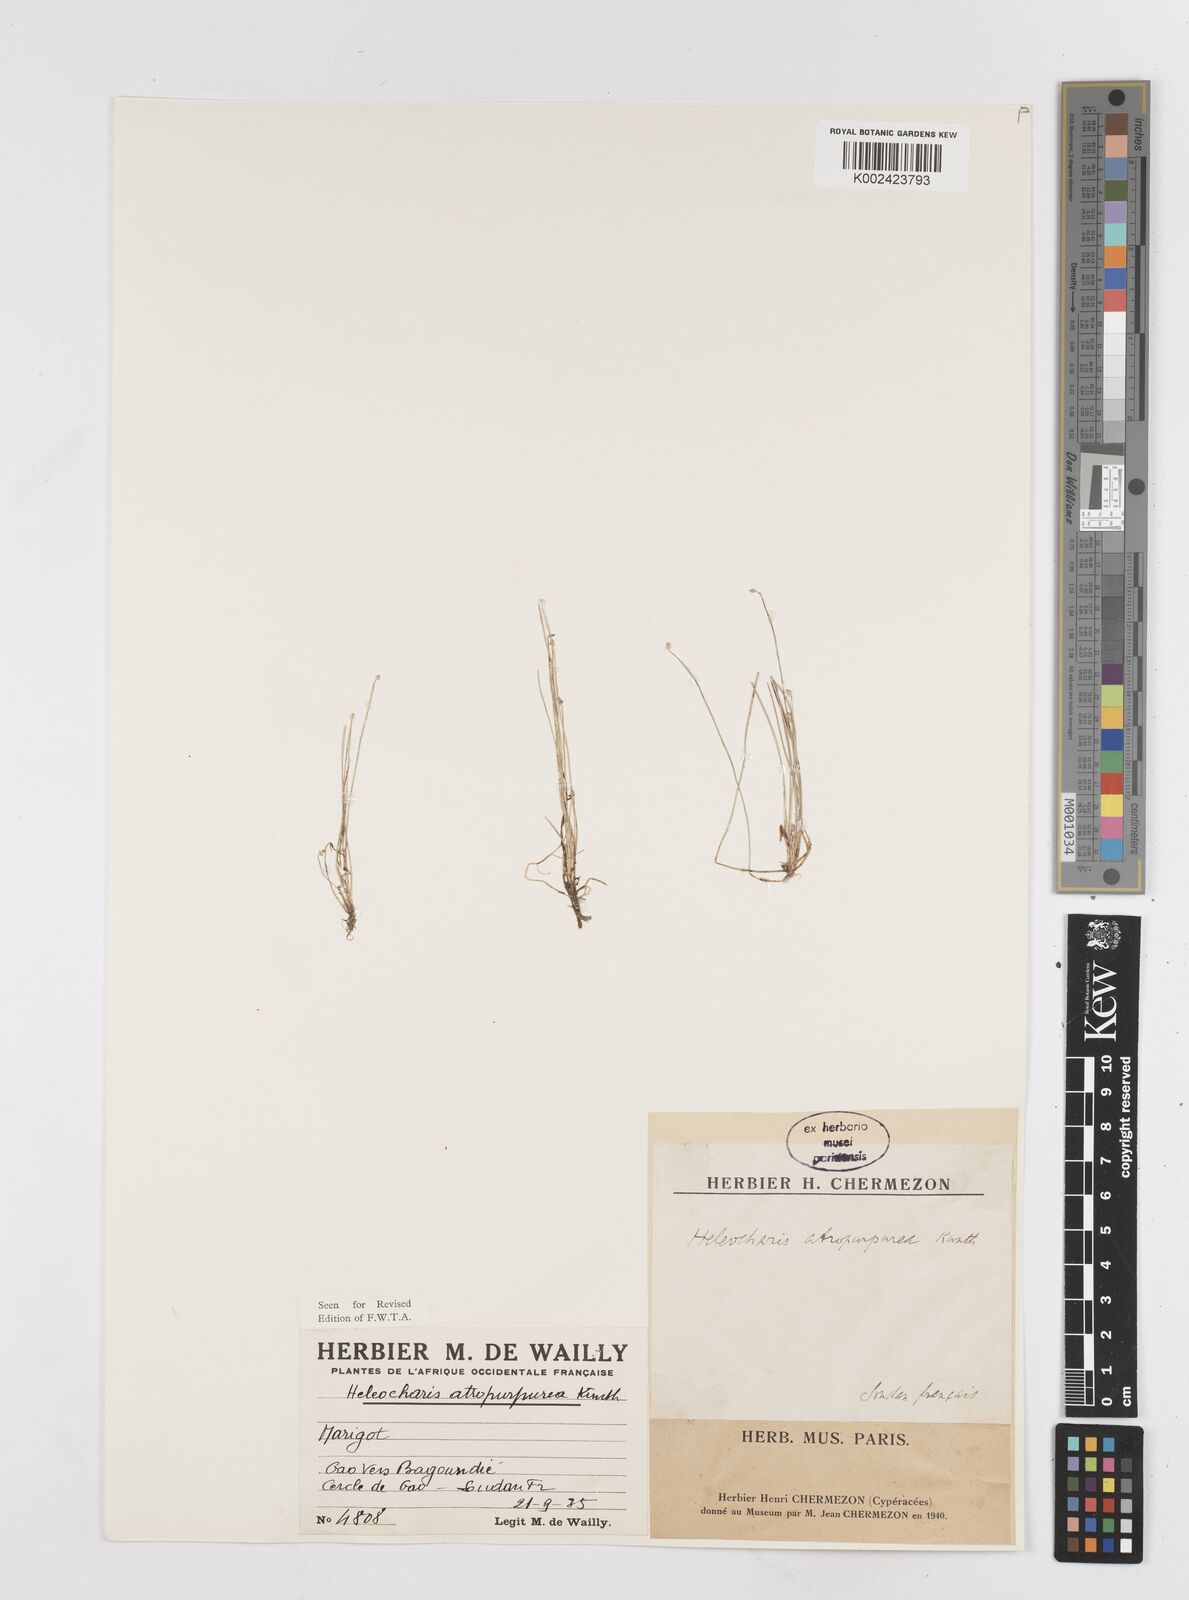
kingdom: Plantae
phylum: Tracheophyta
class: Liliopsida
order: Poales
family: Cyperaceae
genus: Eleocharis
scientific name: Eleocharis atropurpurea
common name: Purple spikerush
